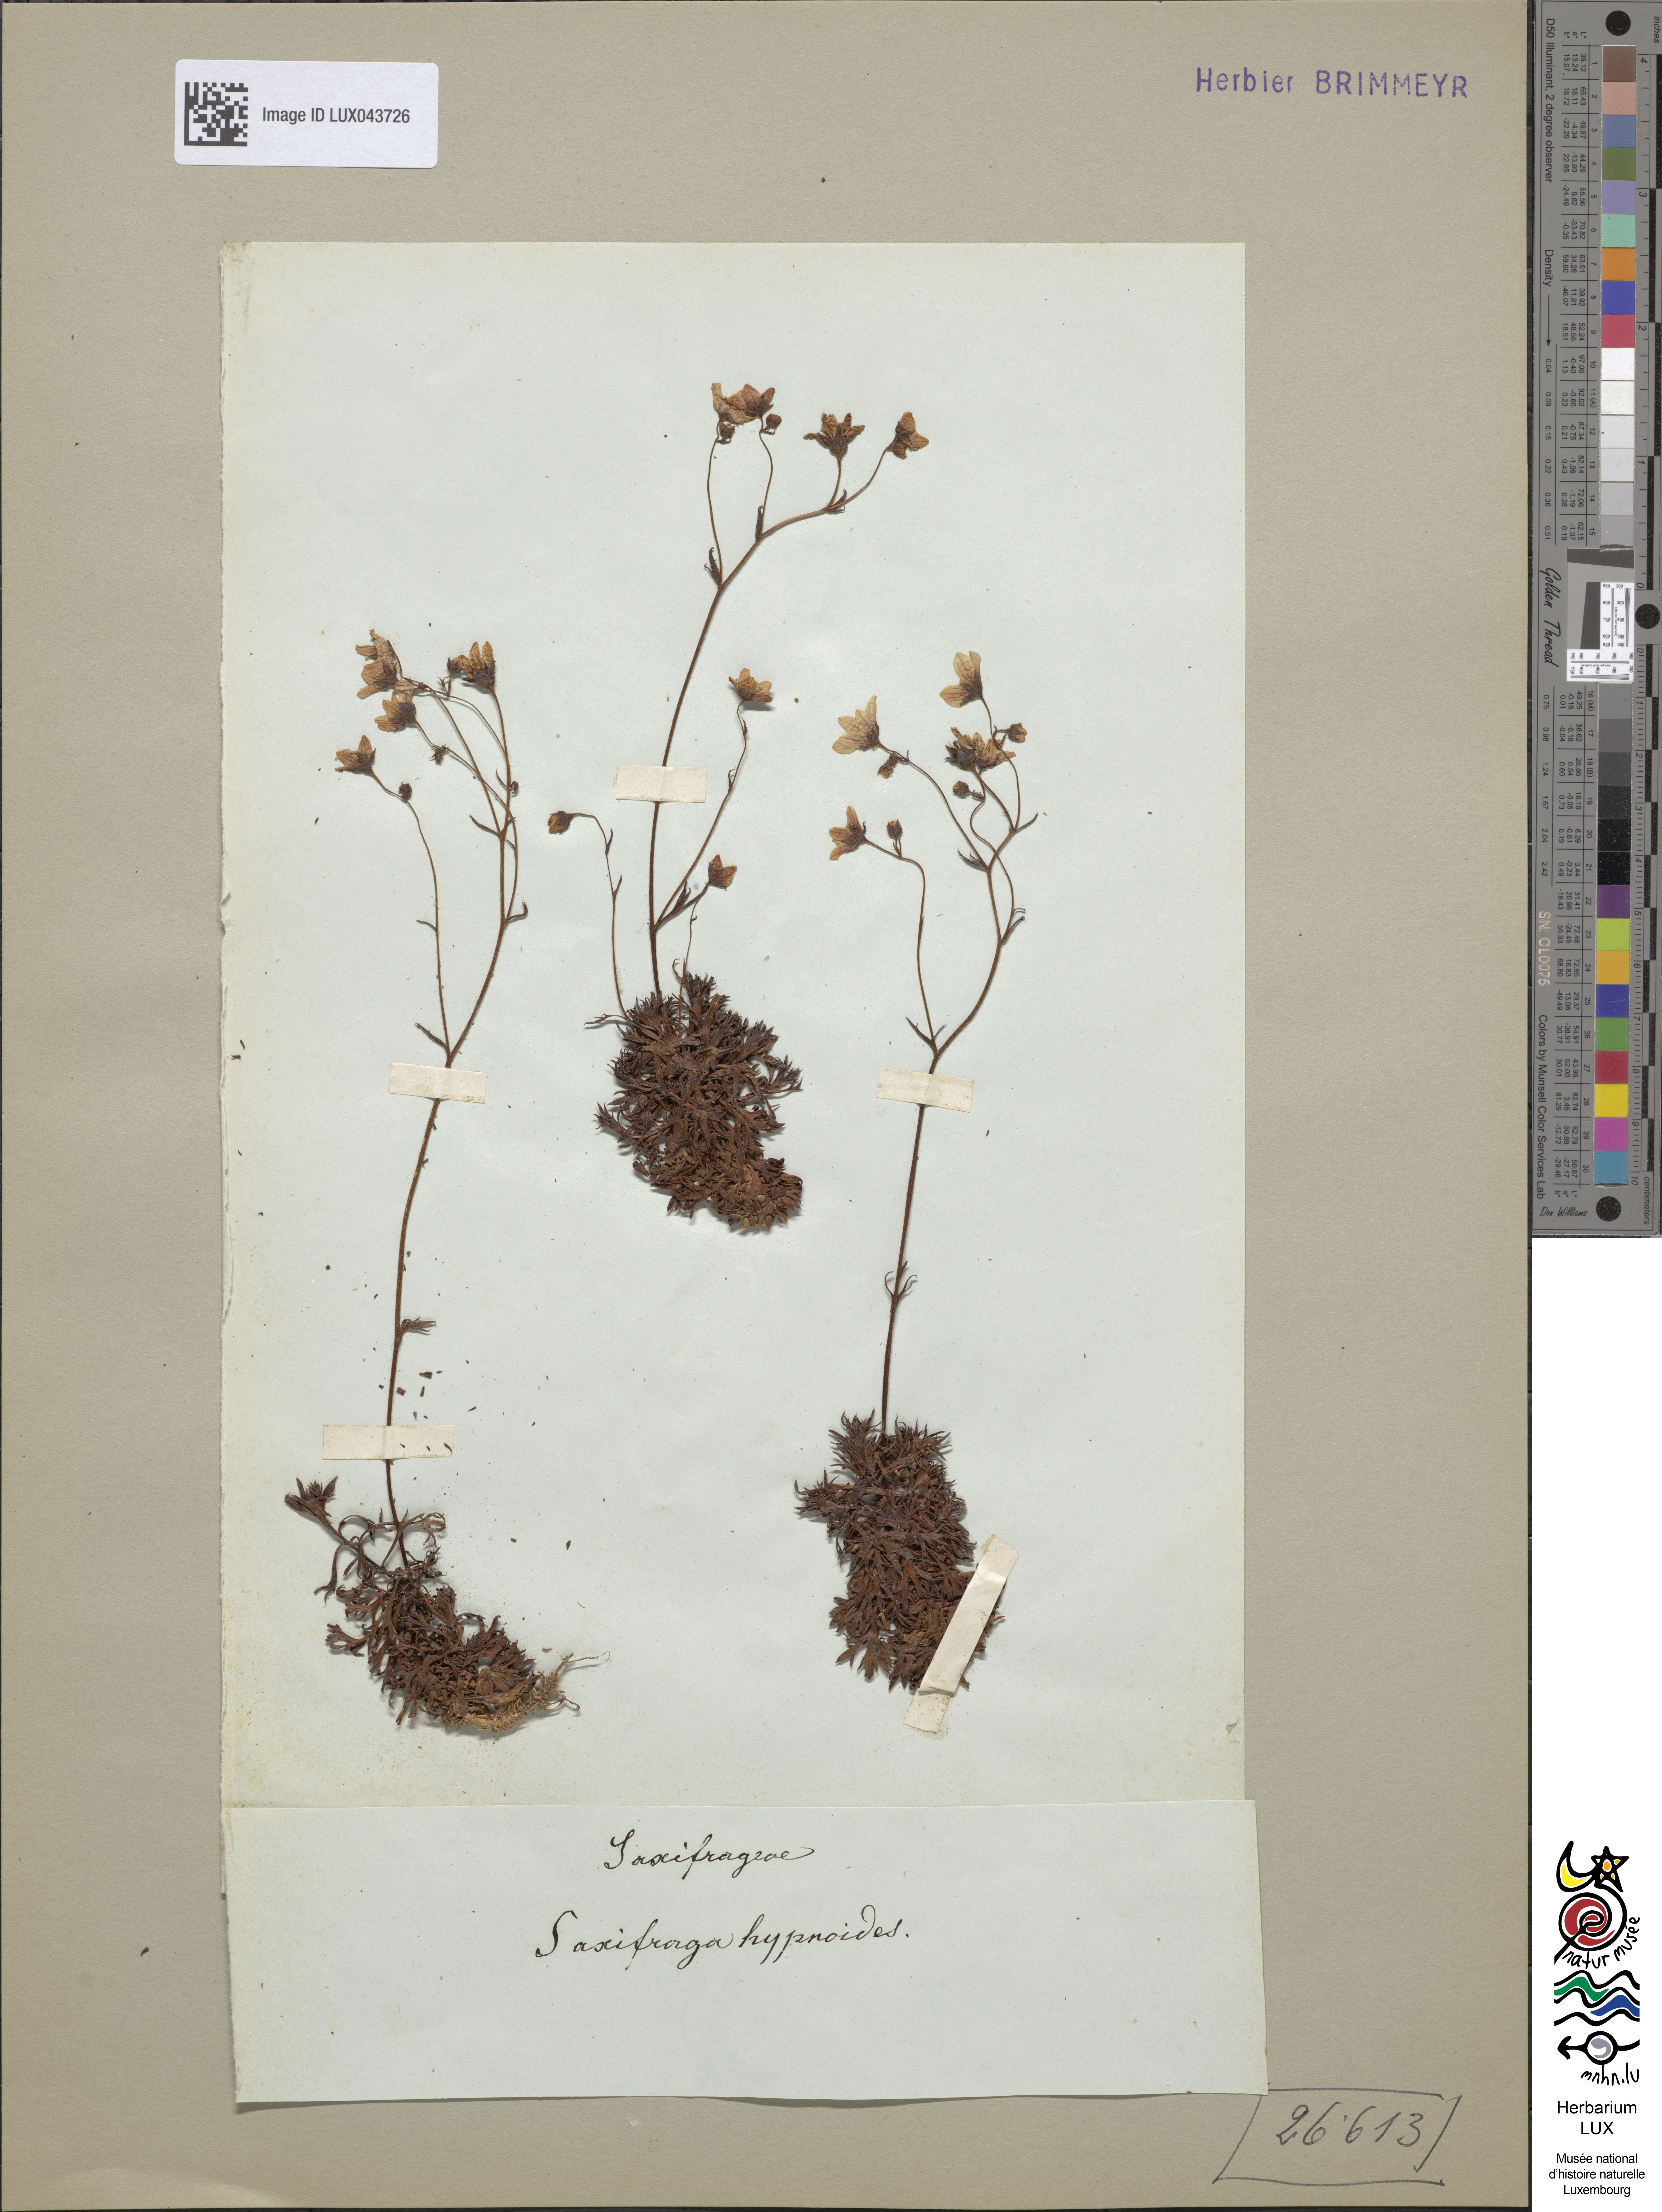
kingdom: Plantae
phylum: Tracheophyta
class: Magnoliopsida
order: Saxifragales
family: Saxifragaceae
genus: Saxifraga
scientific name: Saxifraga hypnoides
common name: Mossy saxifrage
